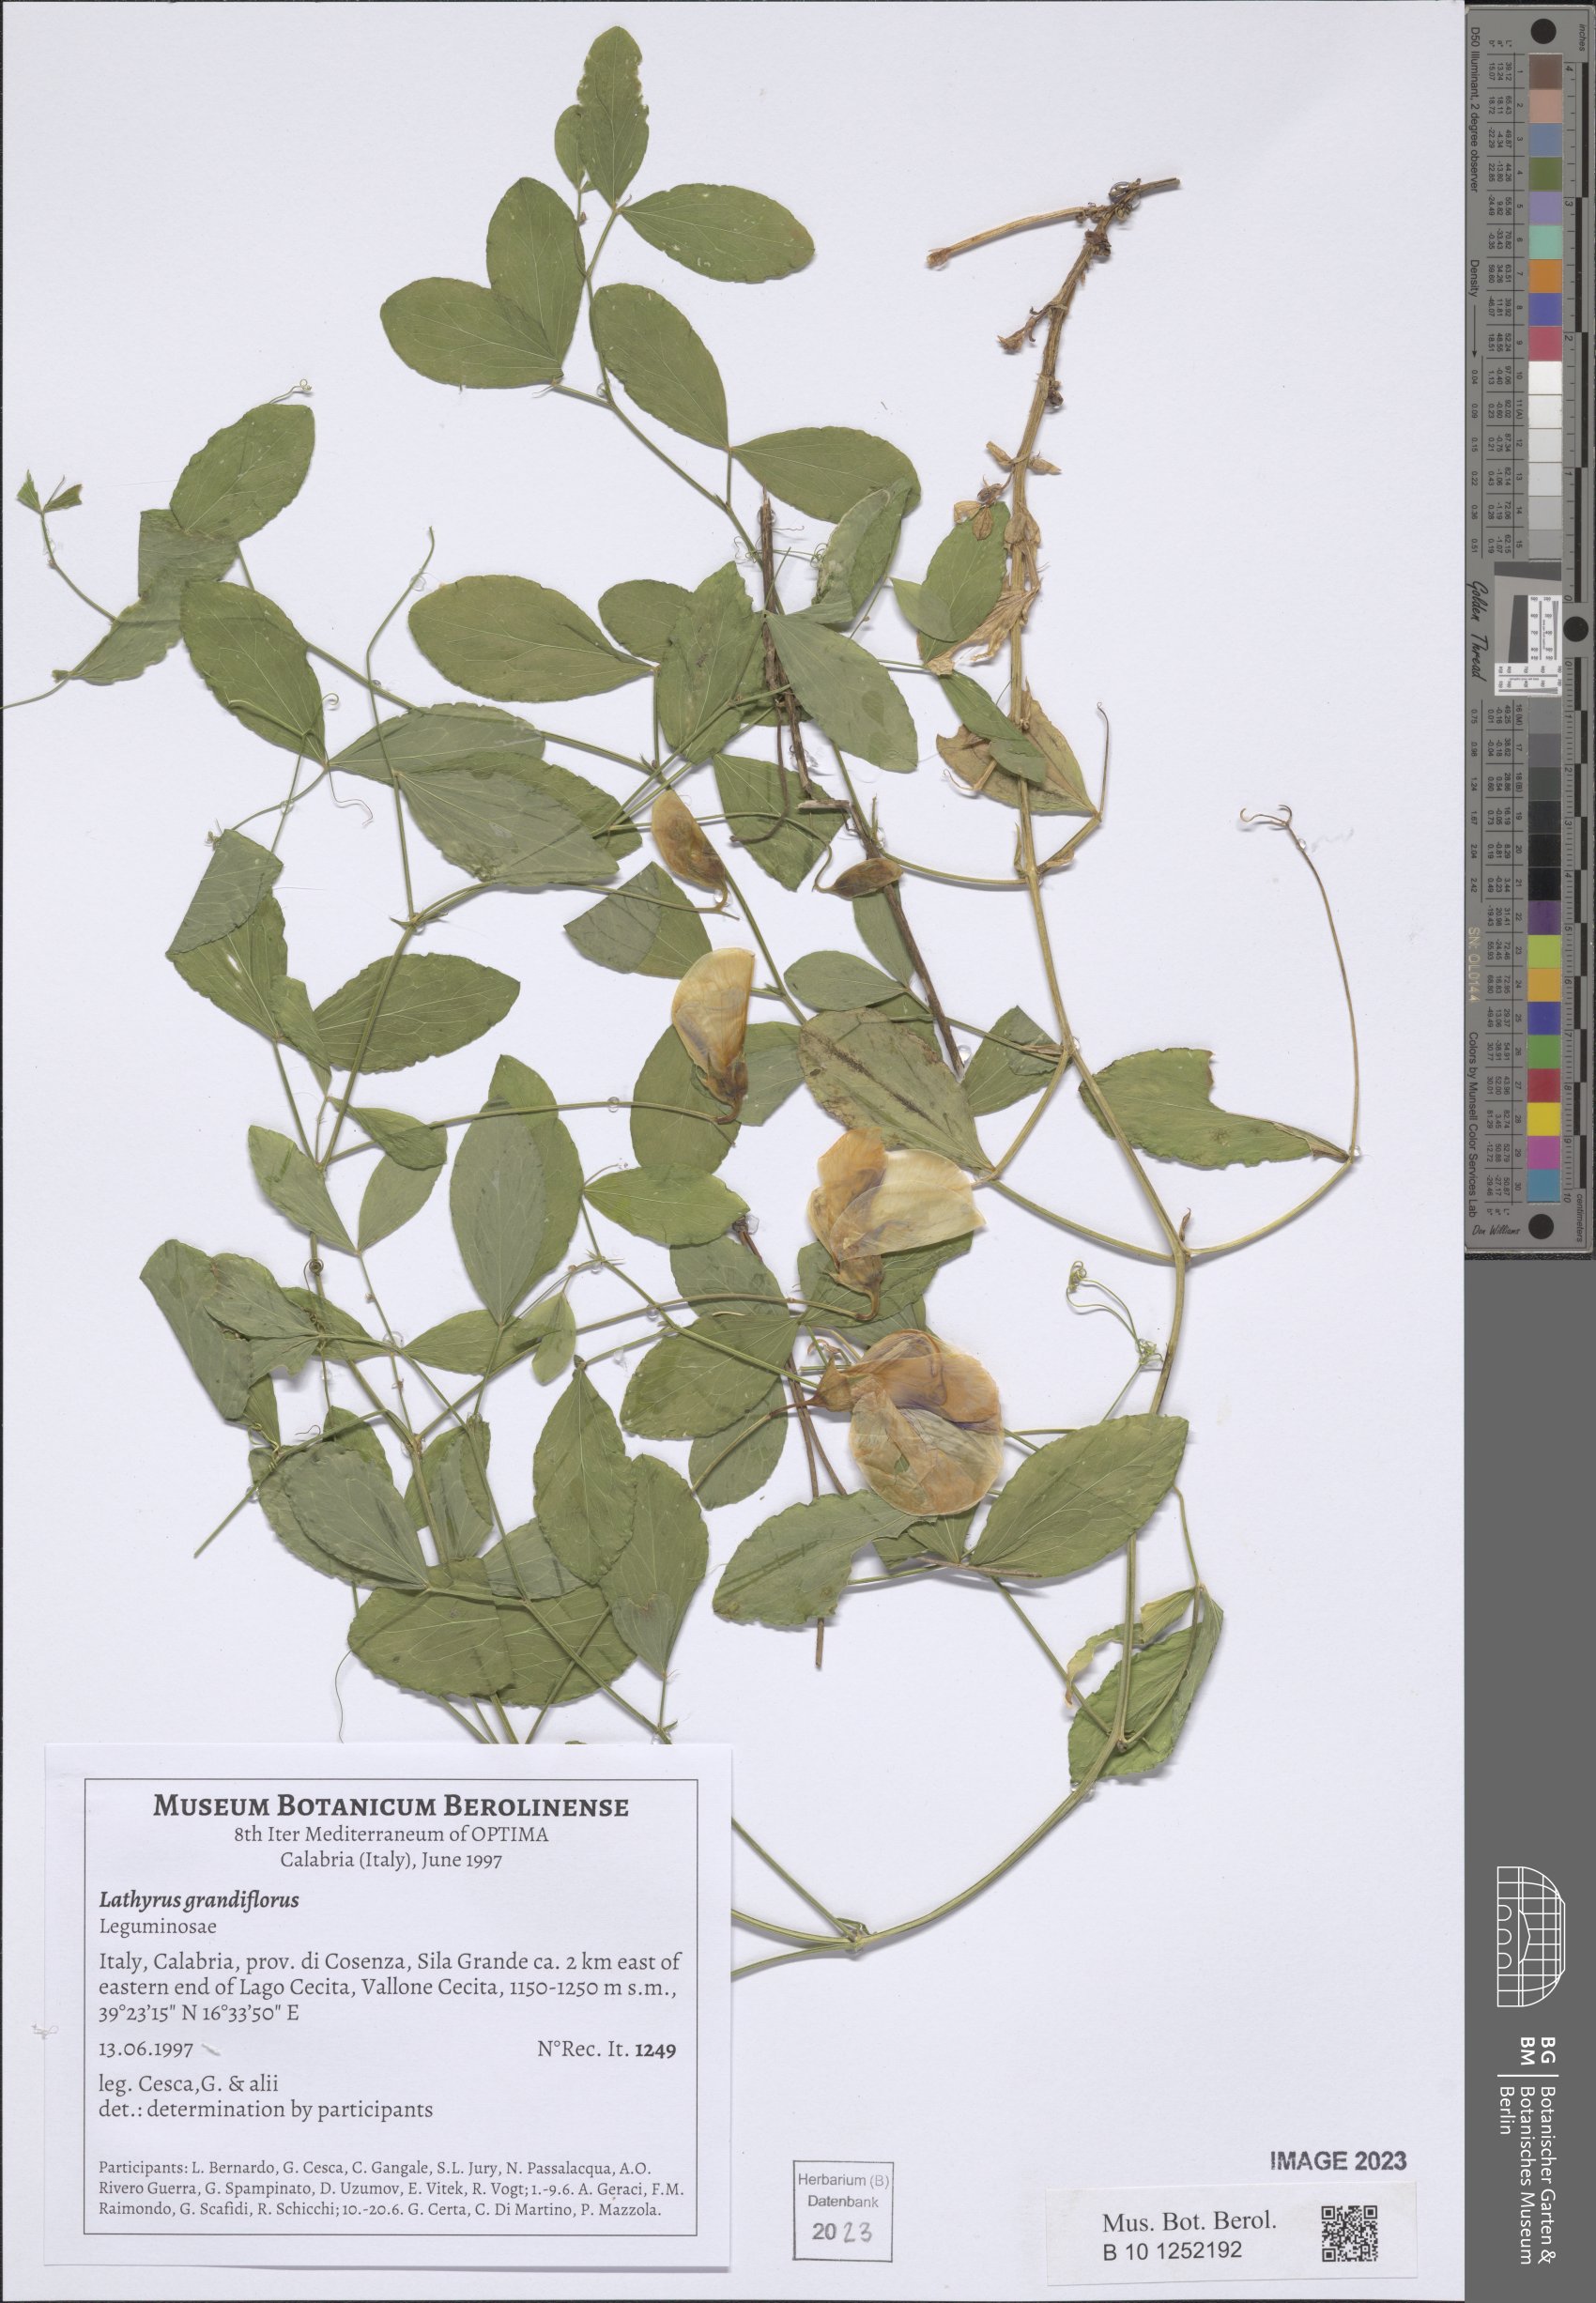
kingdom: Plantae
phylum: Tracheophyta
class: Magnoliopsida
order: Fabales
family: Fabaceae
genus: Lathyrus
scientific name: Lathyrus grandiflorus
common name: Two-flowered everlasting-pea
